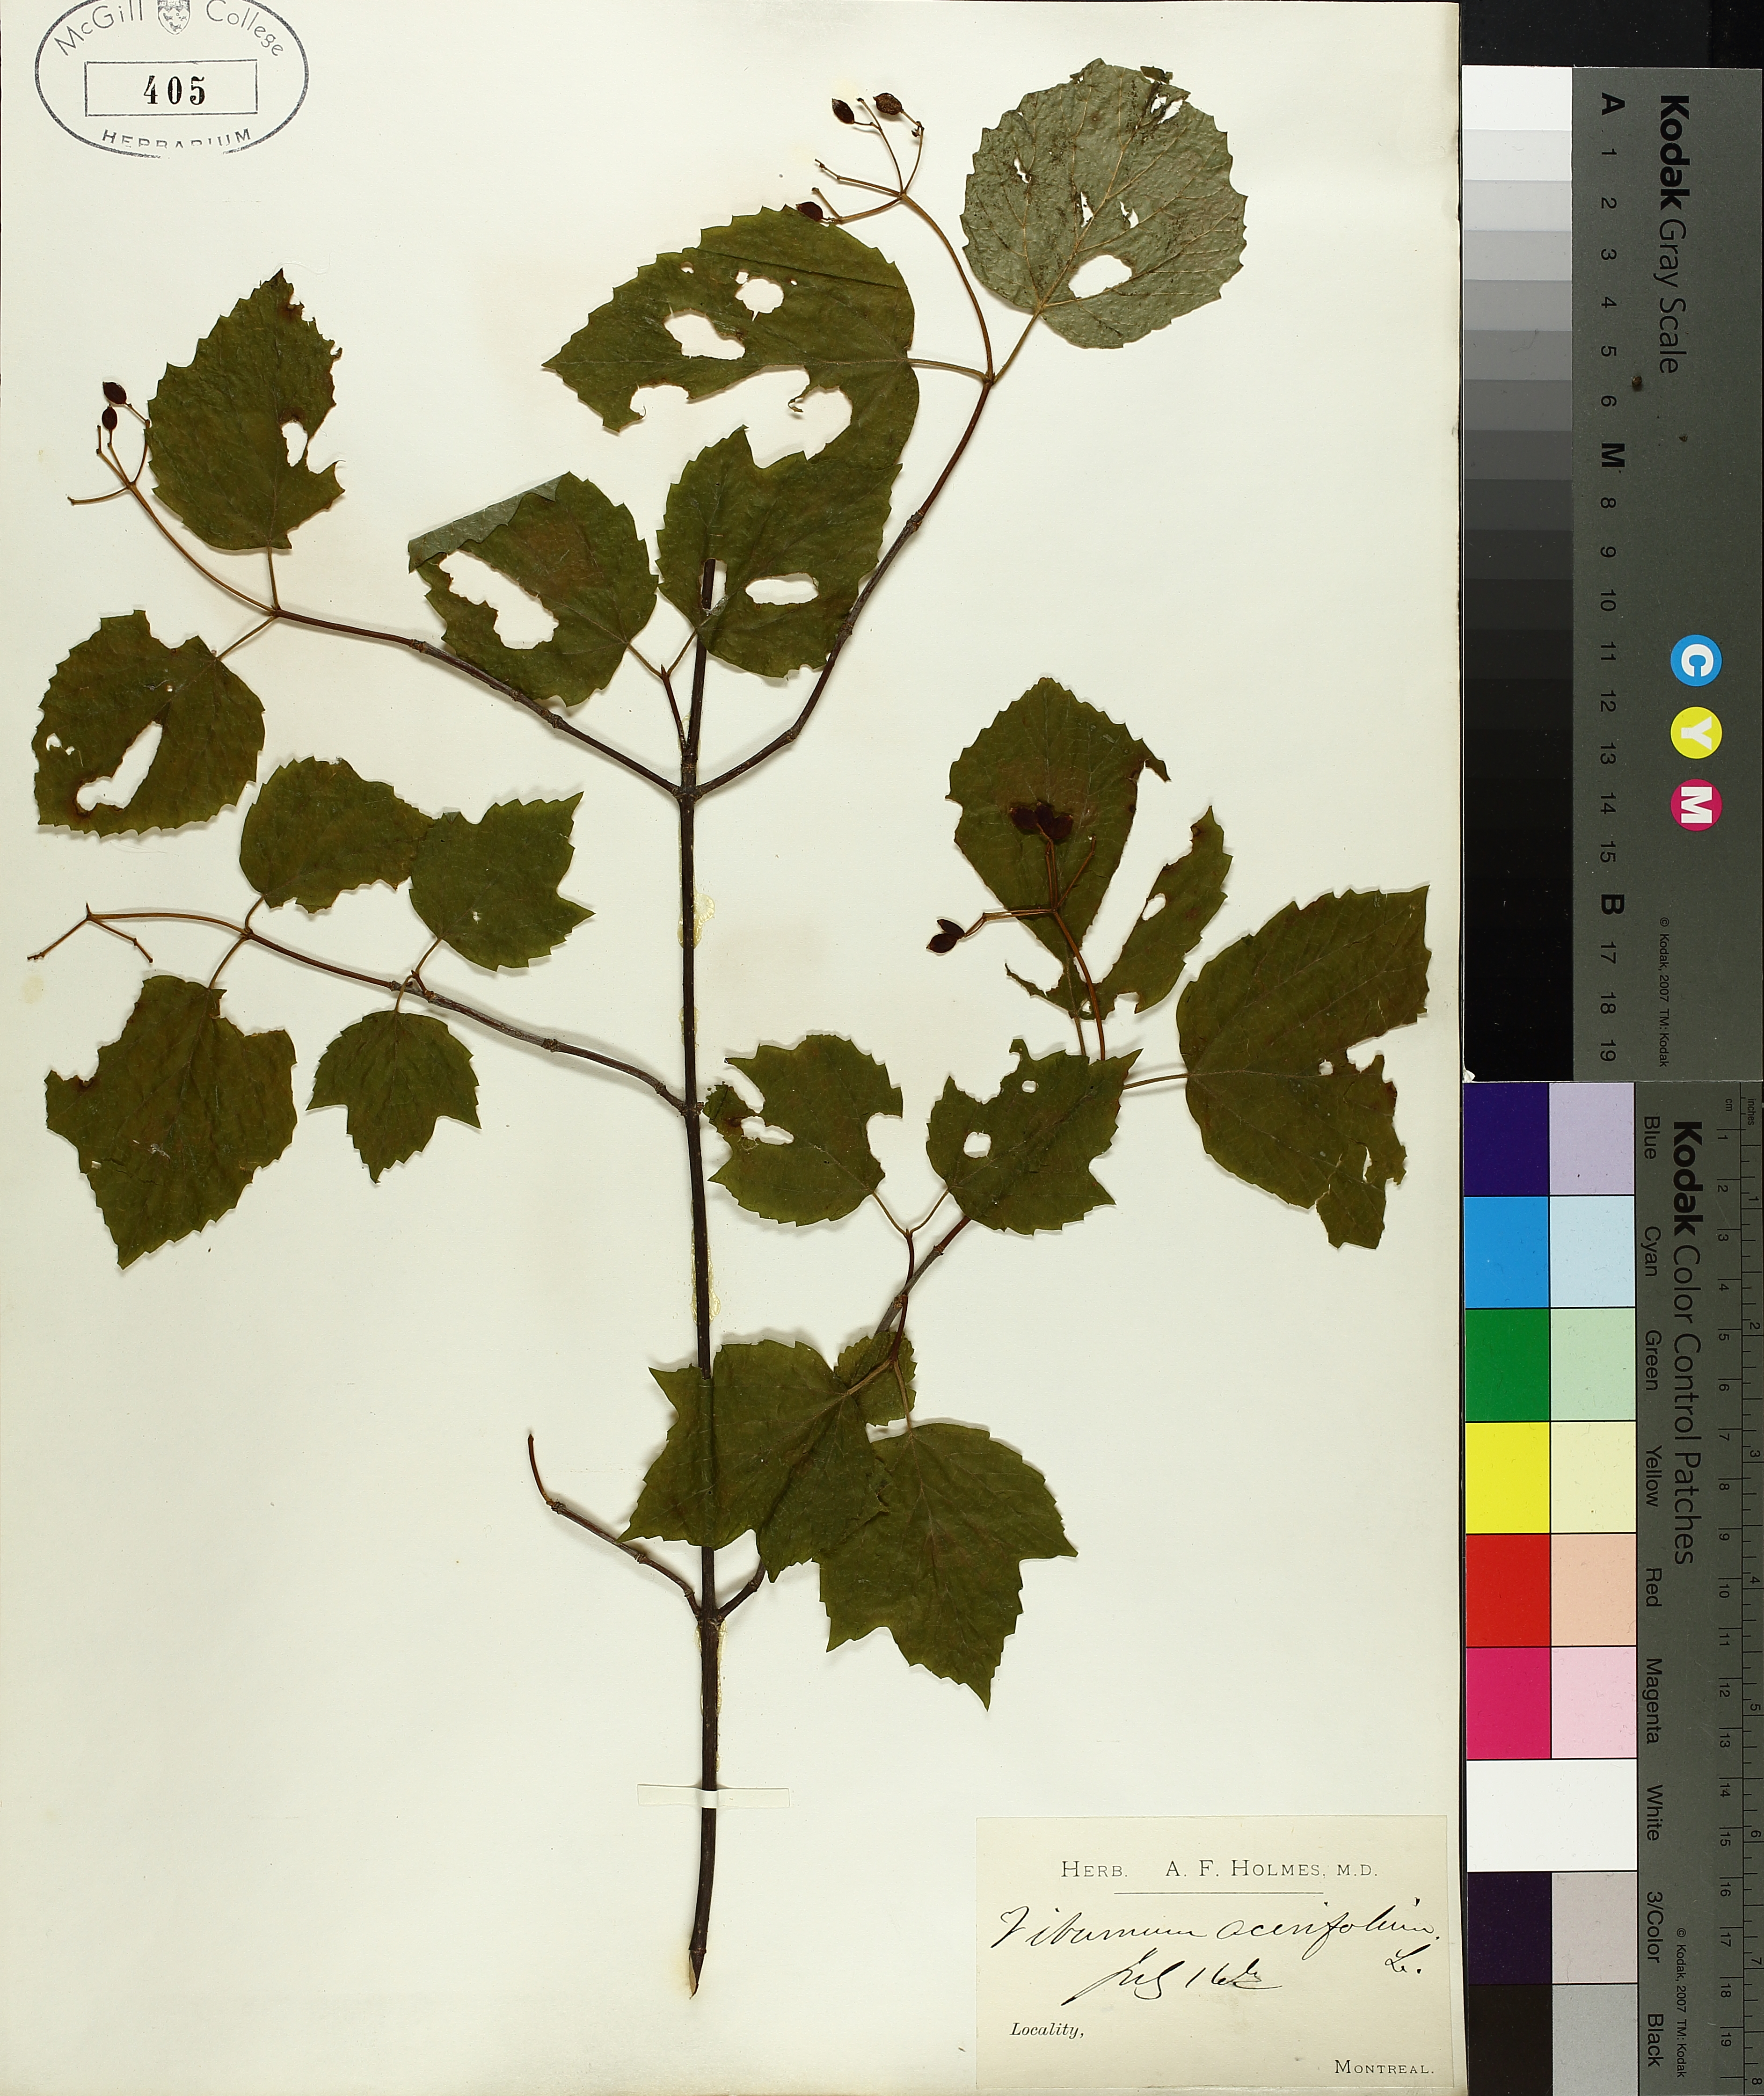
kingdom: Plantae
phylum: Tracheophyta
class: Magnoliopsida
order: Dipsacales
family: Viburnaceae
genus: Viburnum
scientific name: Viburnum acerifolium
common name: Dockmackie
